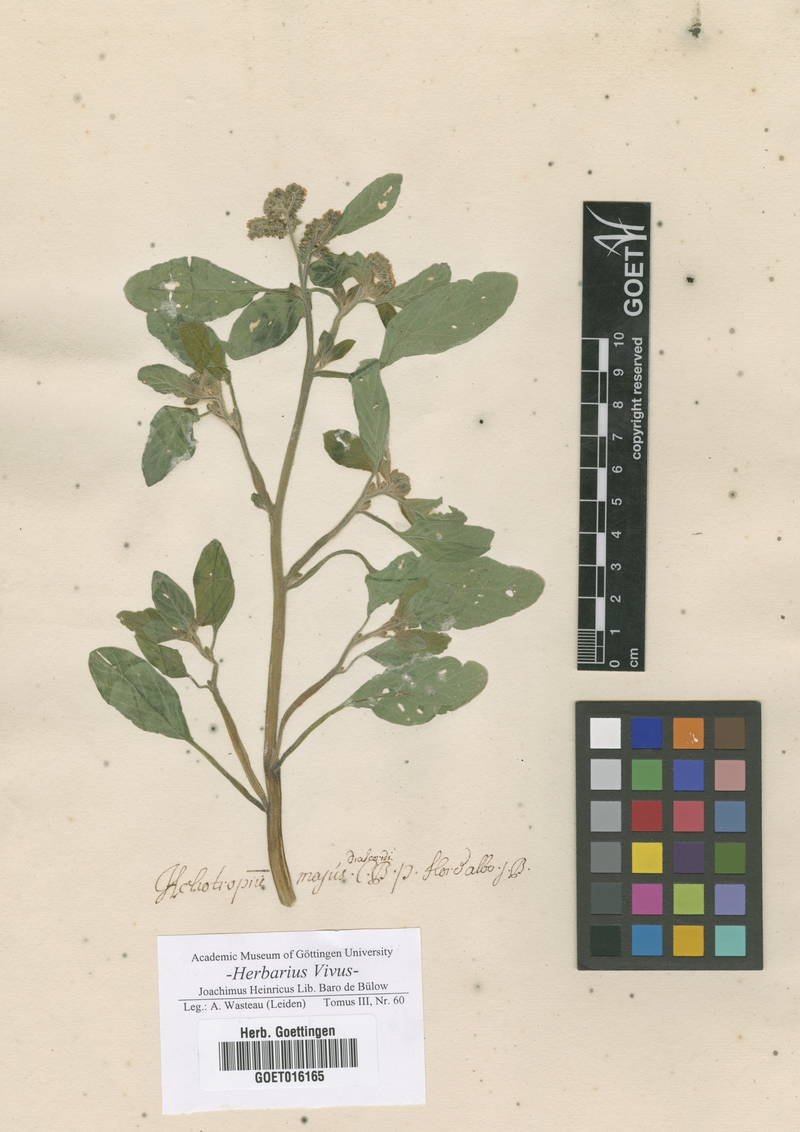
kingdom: Plantae
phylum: Tracheophyta
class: Magnoliopsida
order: Boraginales
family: Heliotropiaceae
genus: Heliotropium
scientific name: Heliotropium europaeum
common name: European heliotrope
